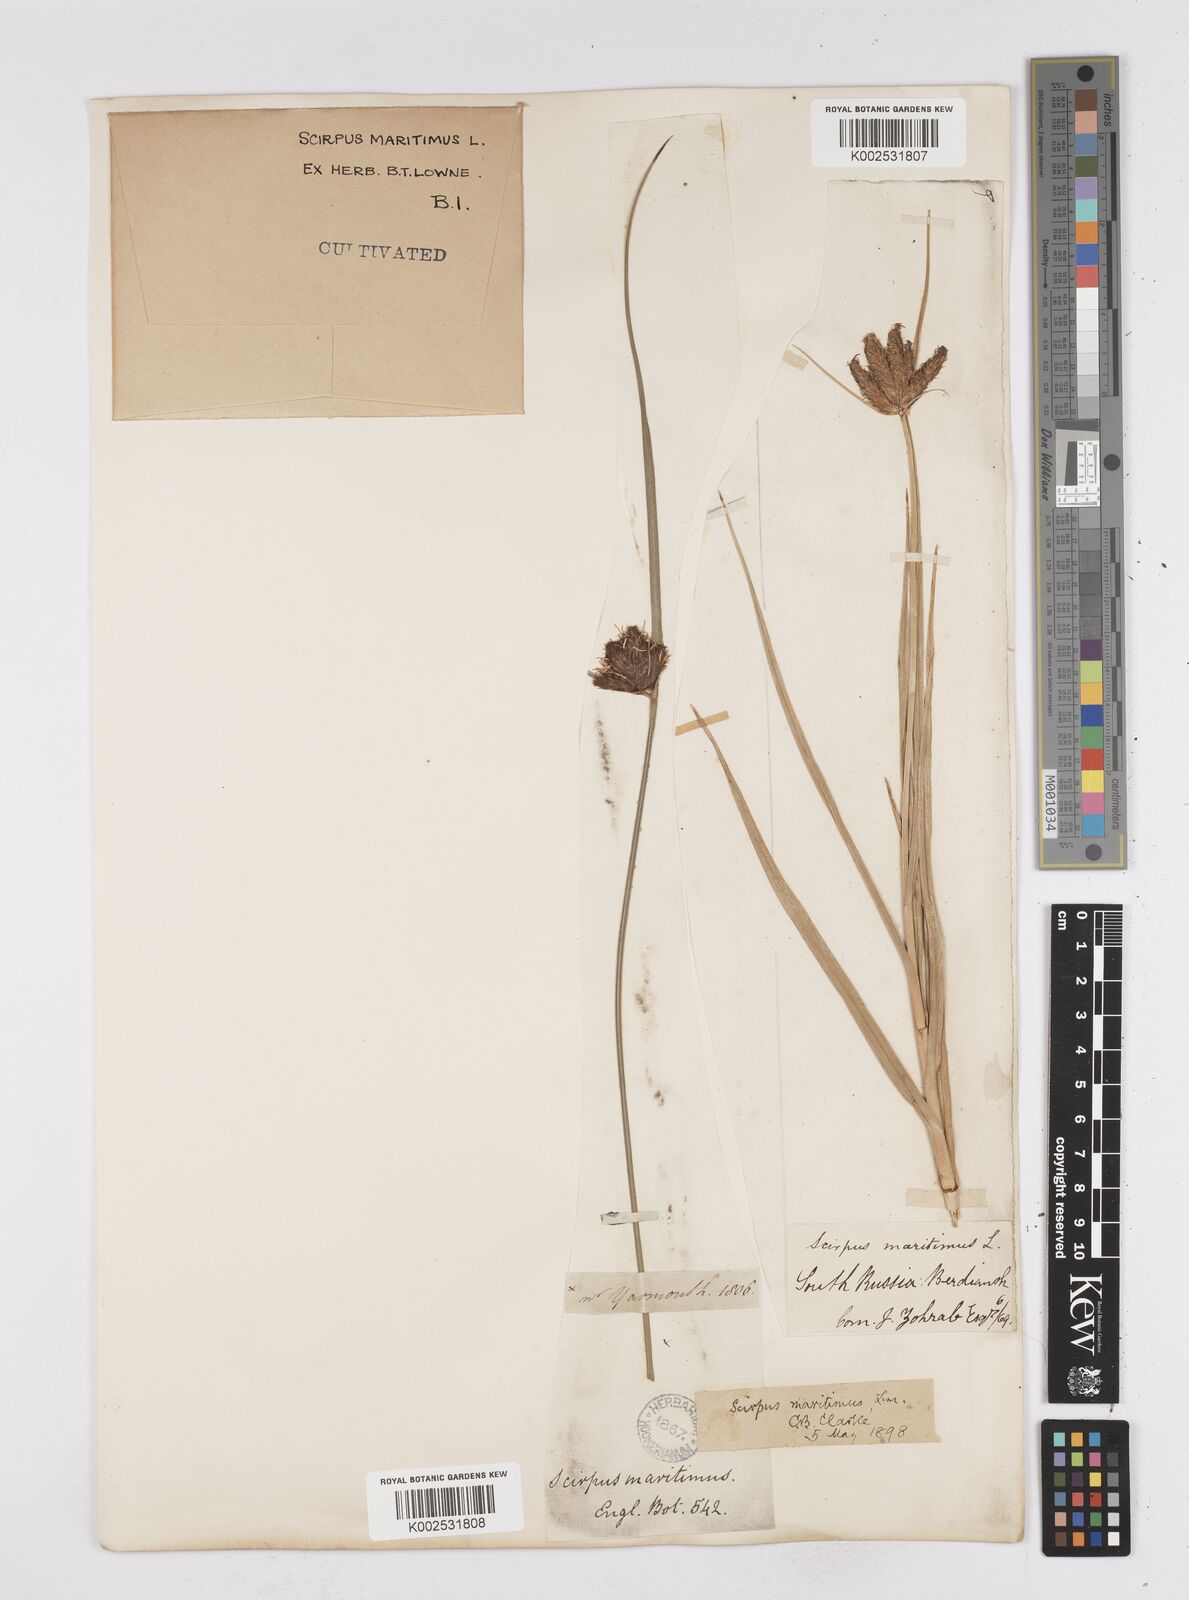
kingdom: Plantae
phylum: Tracheophyta
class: Liliopsida
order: Poales
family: Cyperaceae
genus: Bolboschoenus
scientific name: Bolboschoenus maritimus
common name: Sea club-rush
